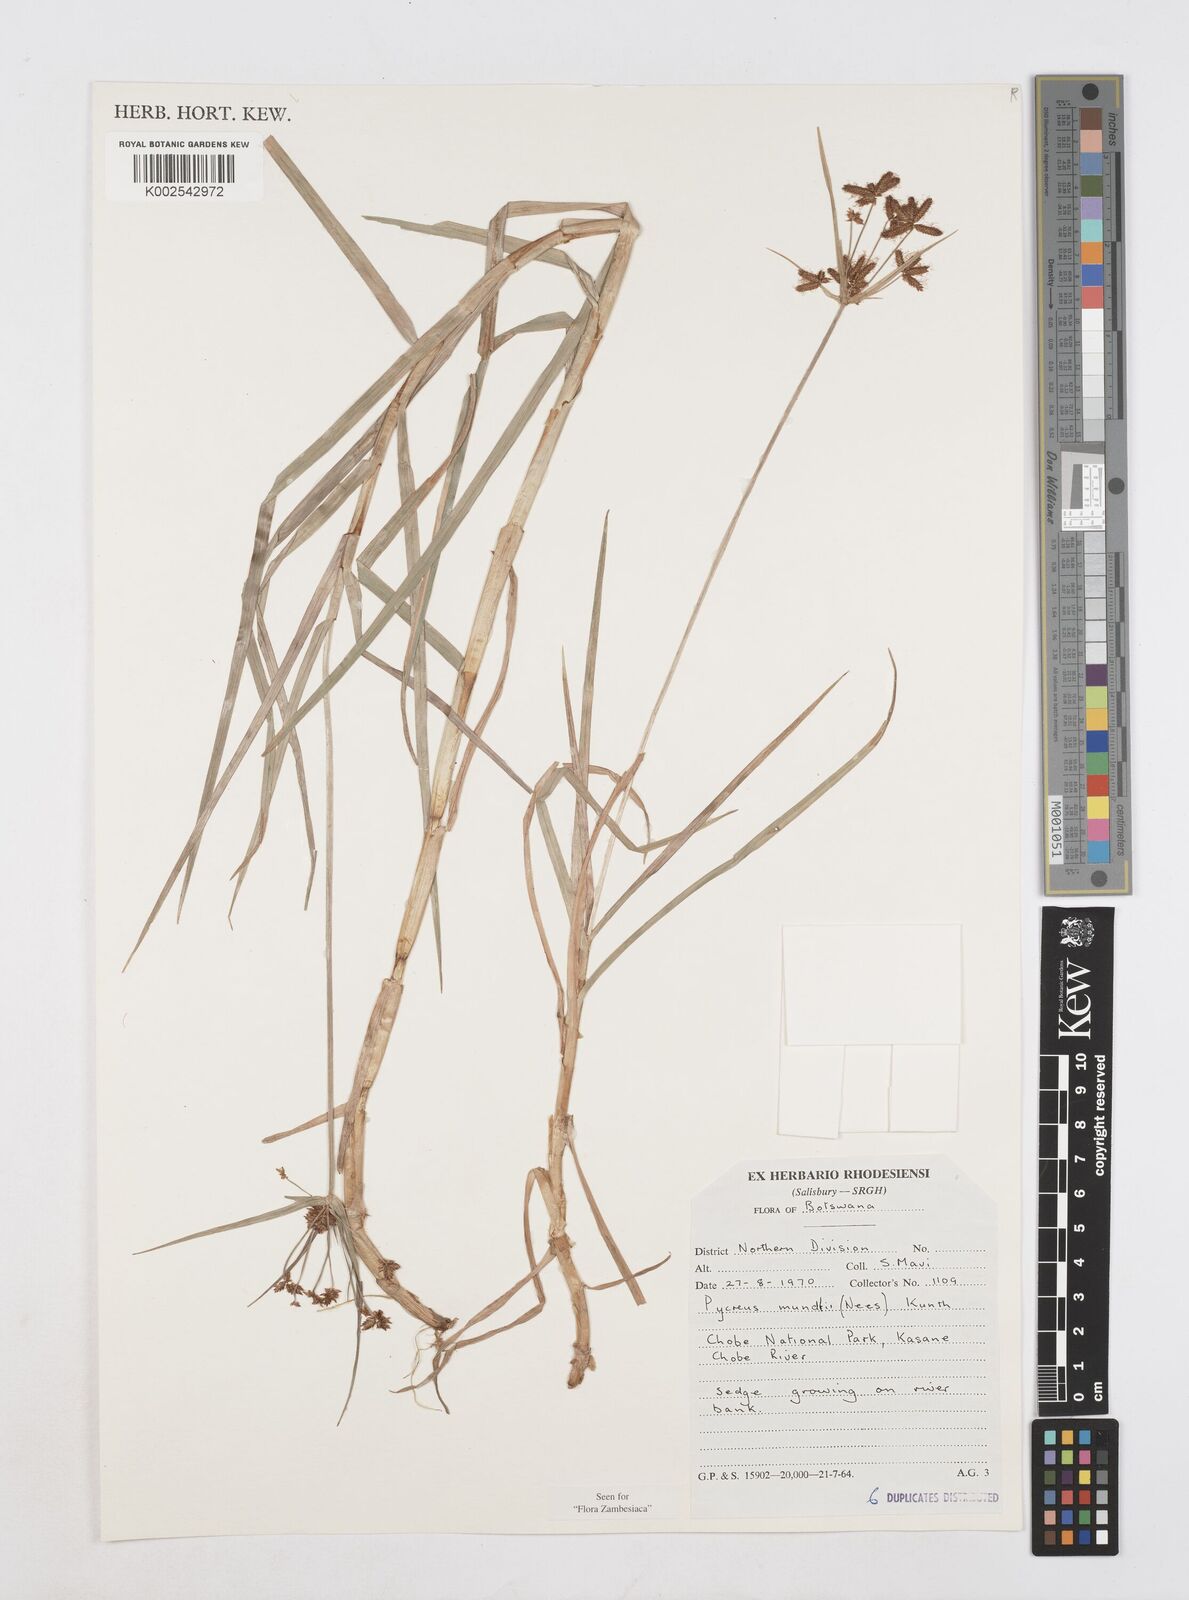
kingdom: Plantae
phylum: Tracheophyta
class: Liliopsida
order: Poales
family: Cyperaceae
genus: Cyperus
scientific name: Cyperus mundii
